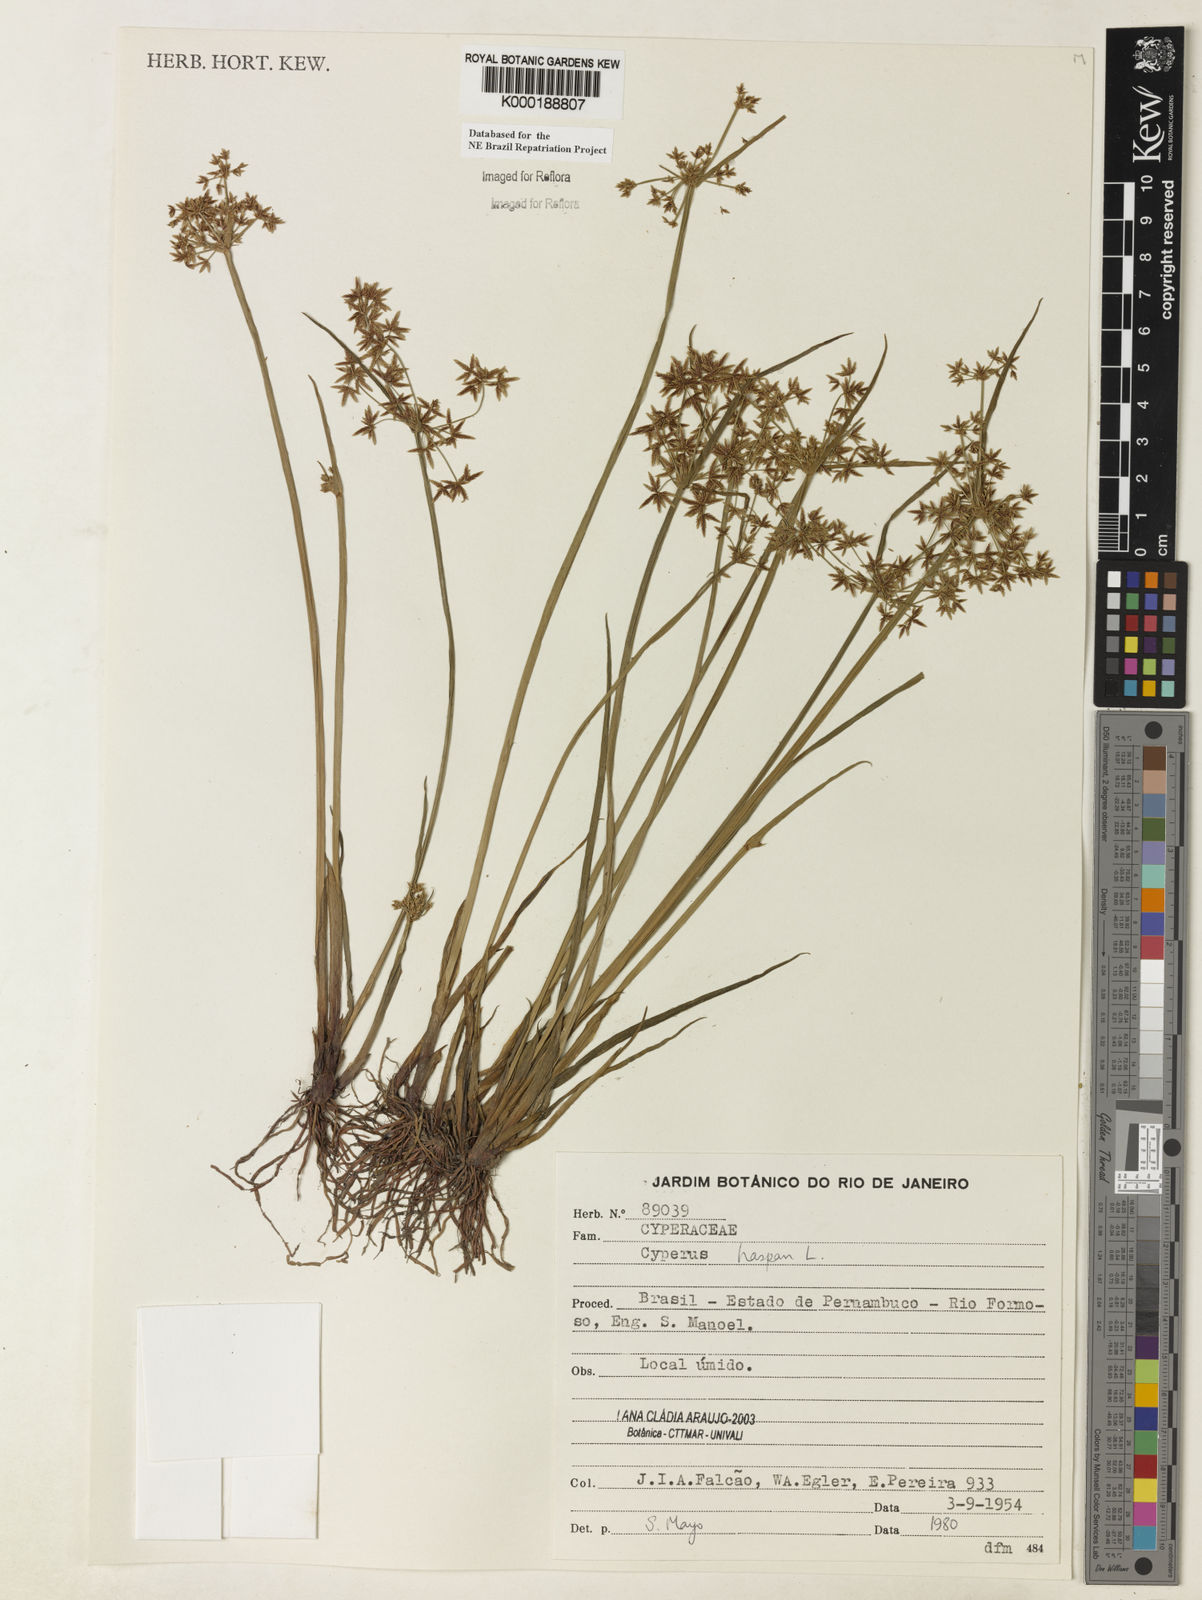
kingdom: Plantae
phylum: Tracheophyta
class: Liliopsida
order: Poales
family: Cyperaceae
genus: Cyperus
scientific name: Cyperus haspan
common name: Haspan flatsedge
